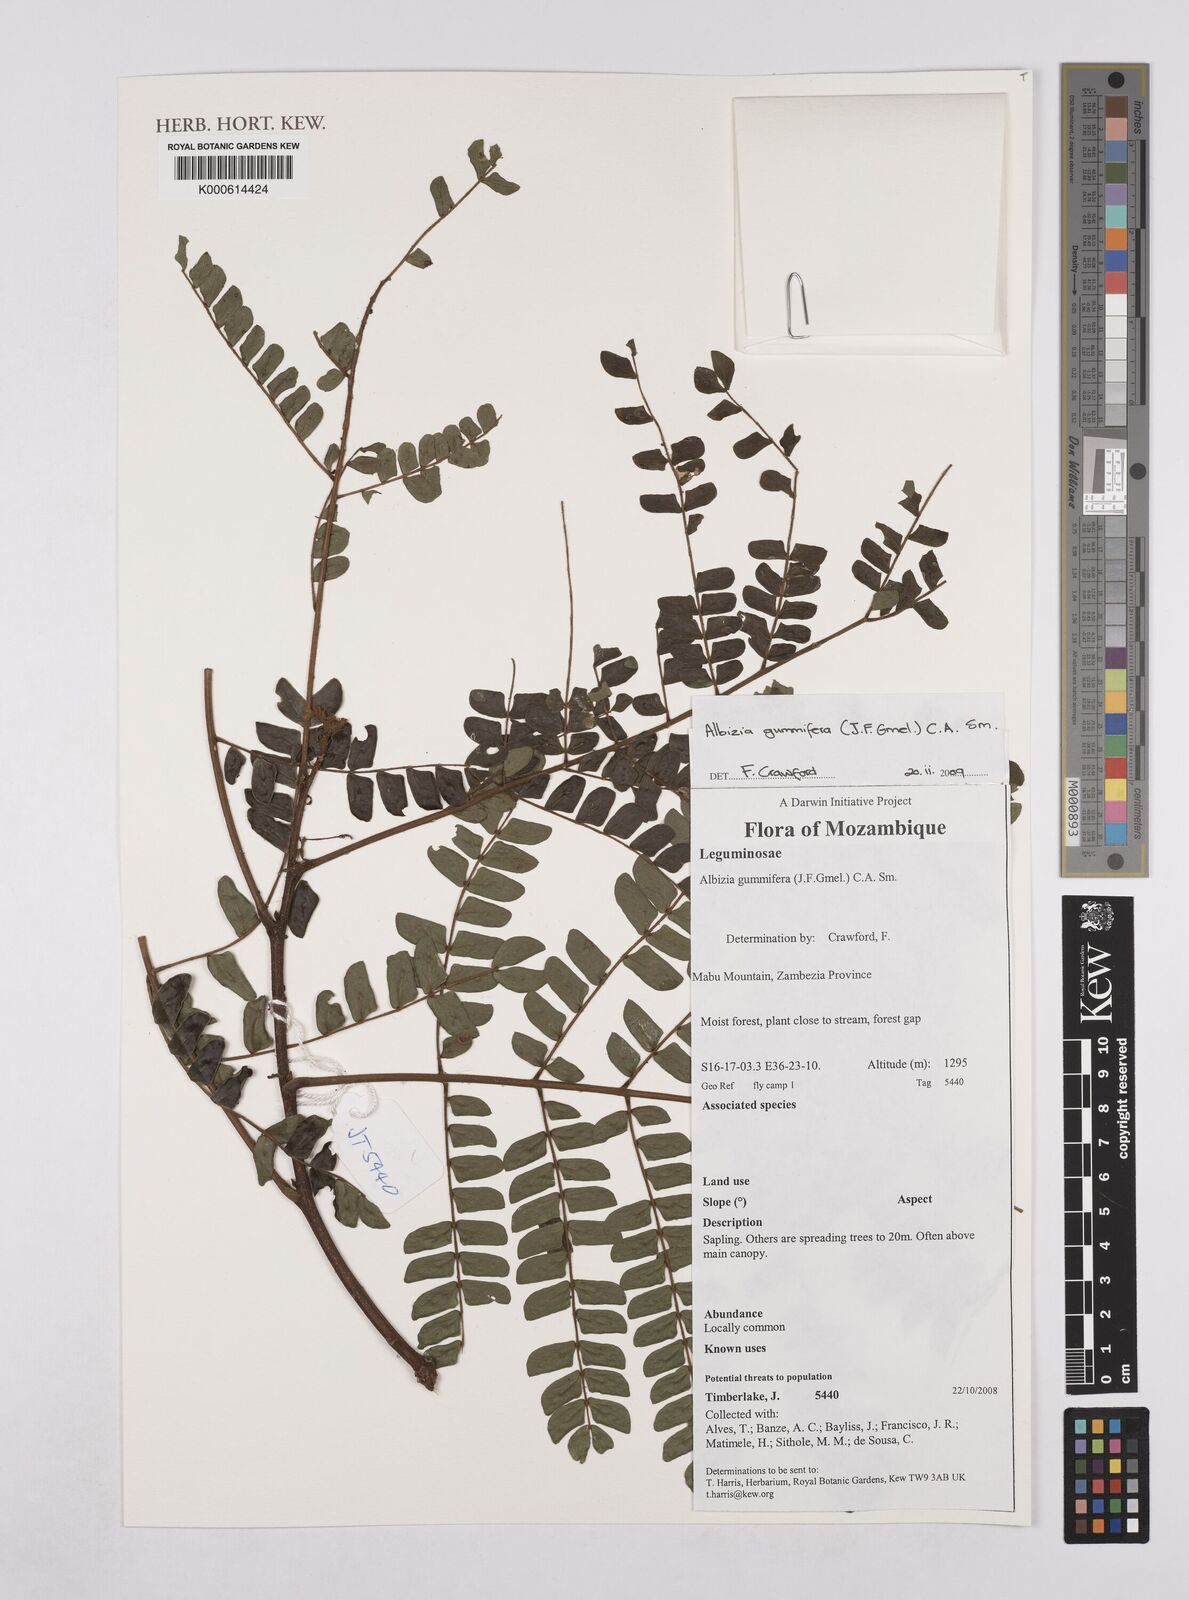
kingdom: Plantae
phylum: Tracheophyta
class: Magnoliopsida
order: Fabales
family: Fabaceae
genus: Albizia
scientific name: Albizia gummifera
